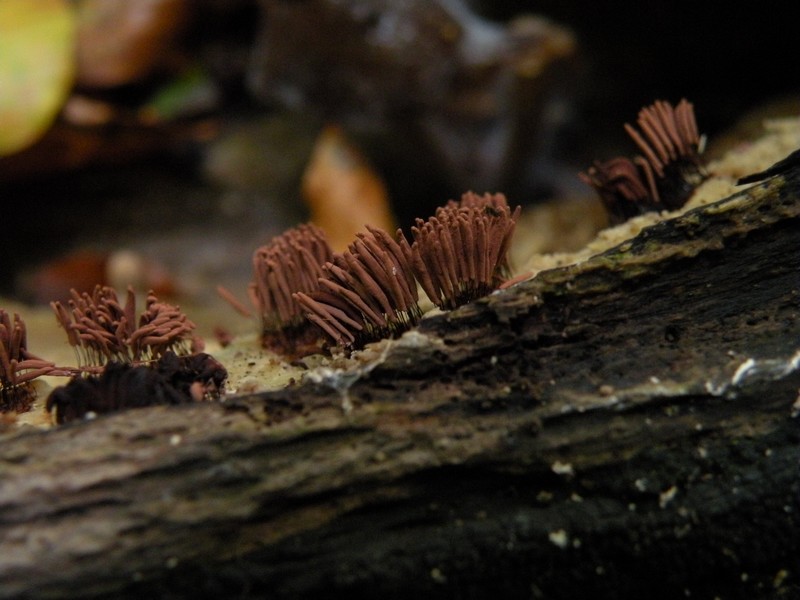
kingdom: Protozoa
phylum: Mycetozoa
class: Myxomycetes
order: Stemonitidales
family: Stemonitidaceae
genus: Stemonitis
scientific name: Stemonitis axifera
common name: rødbrun støvkølle
